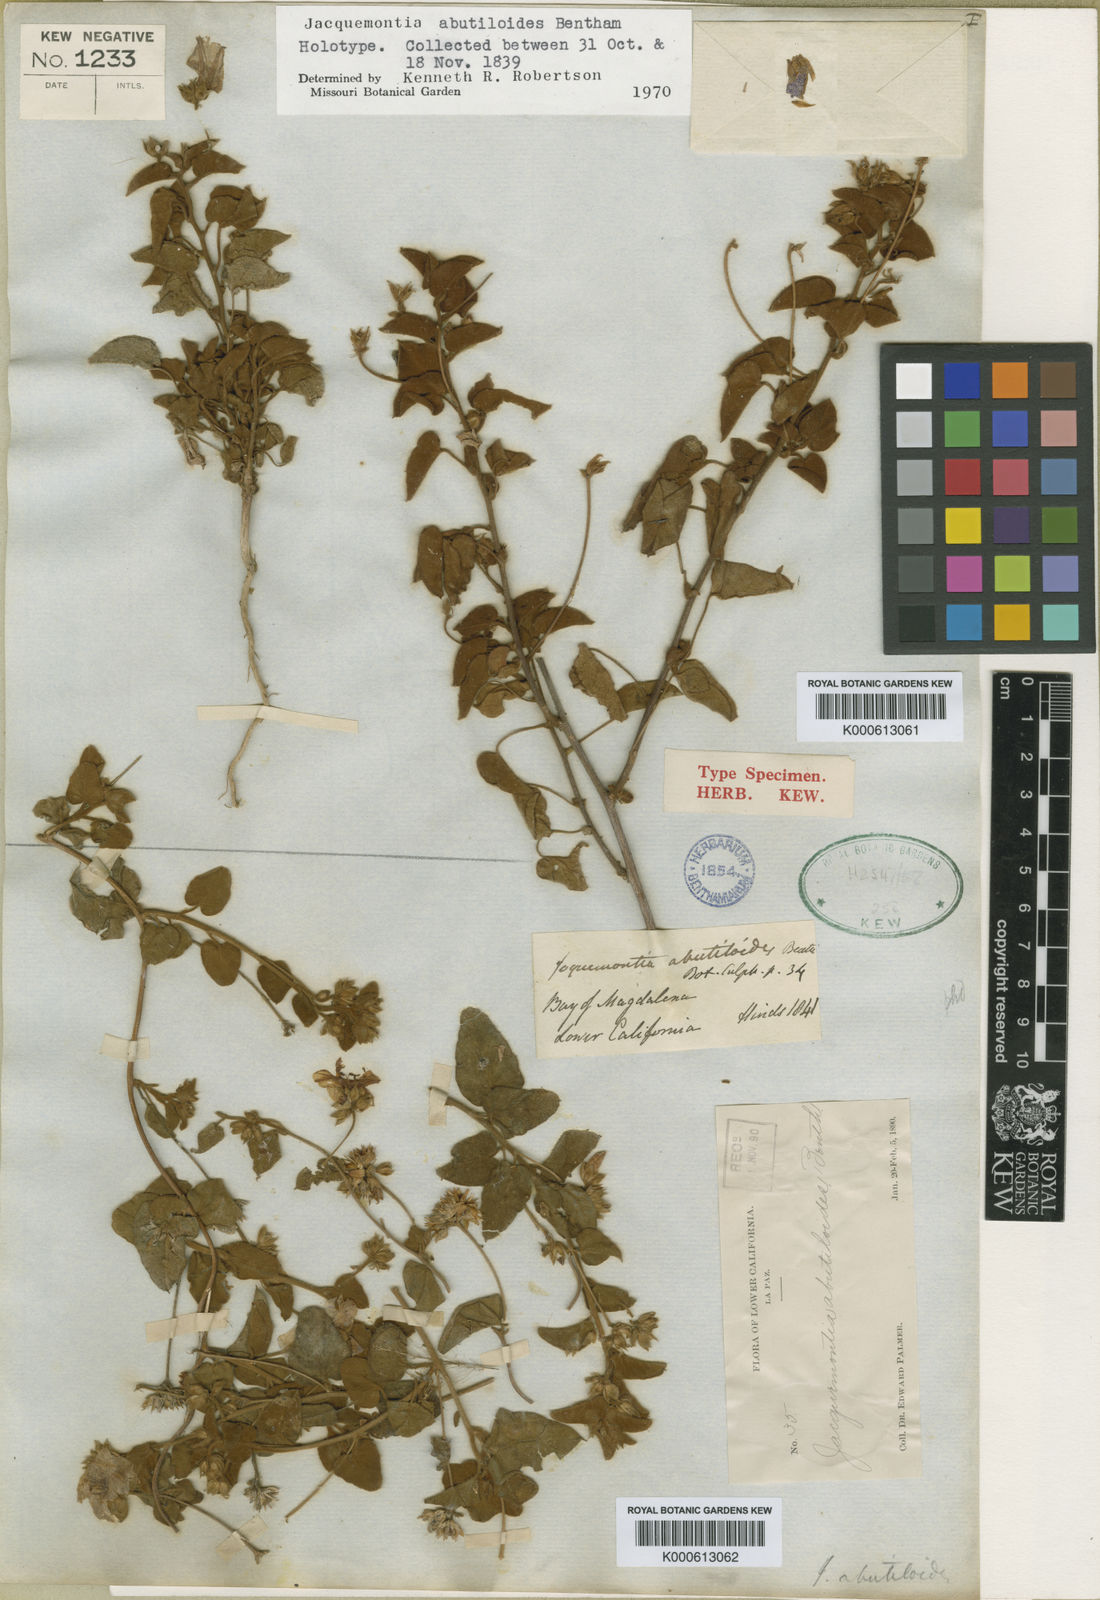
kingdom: Plantae
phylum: Tracheophyta
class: Magnoliopsida
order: Solanales
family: Convolvulaceae
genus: Jacquemontia
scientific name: Jacquemontia abutiloides
